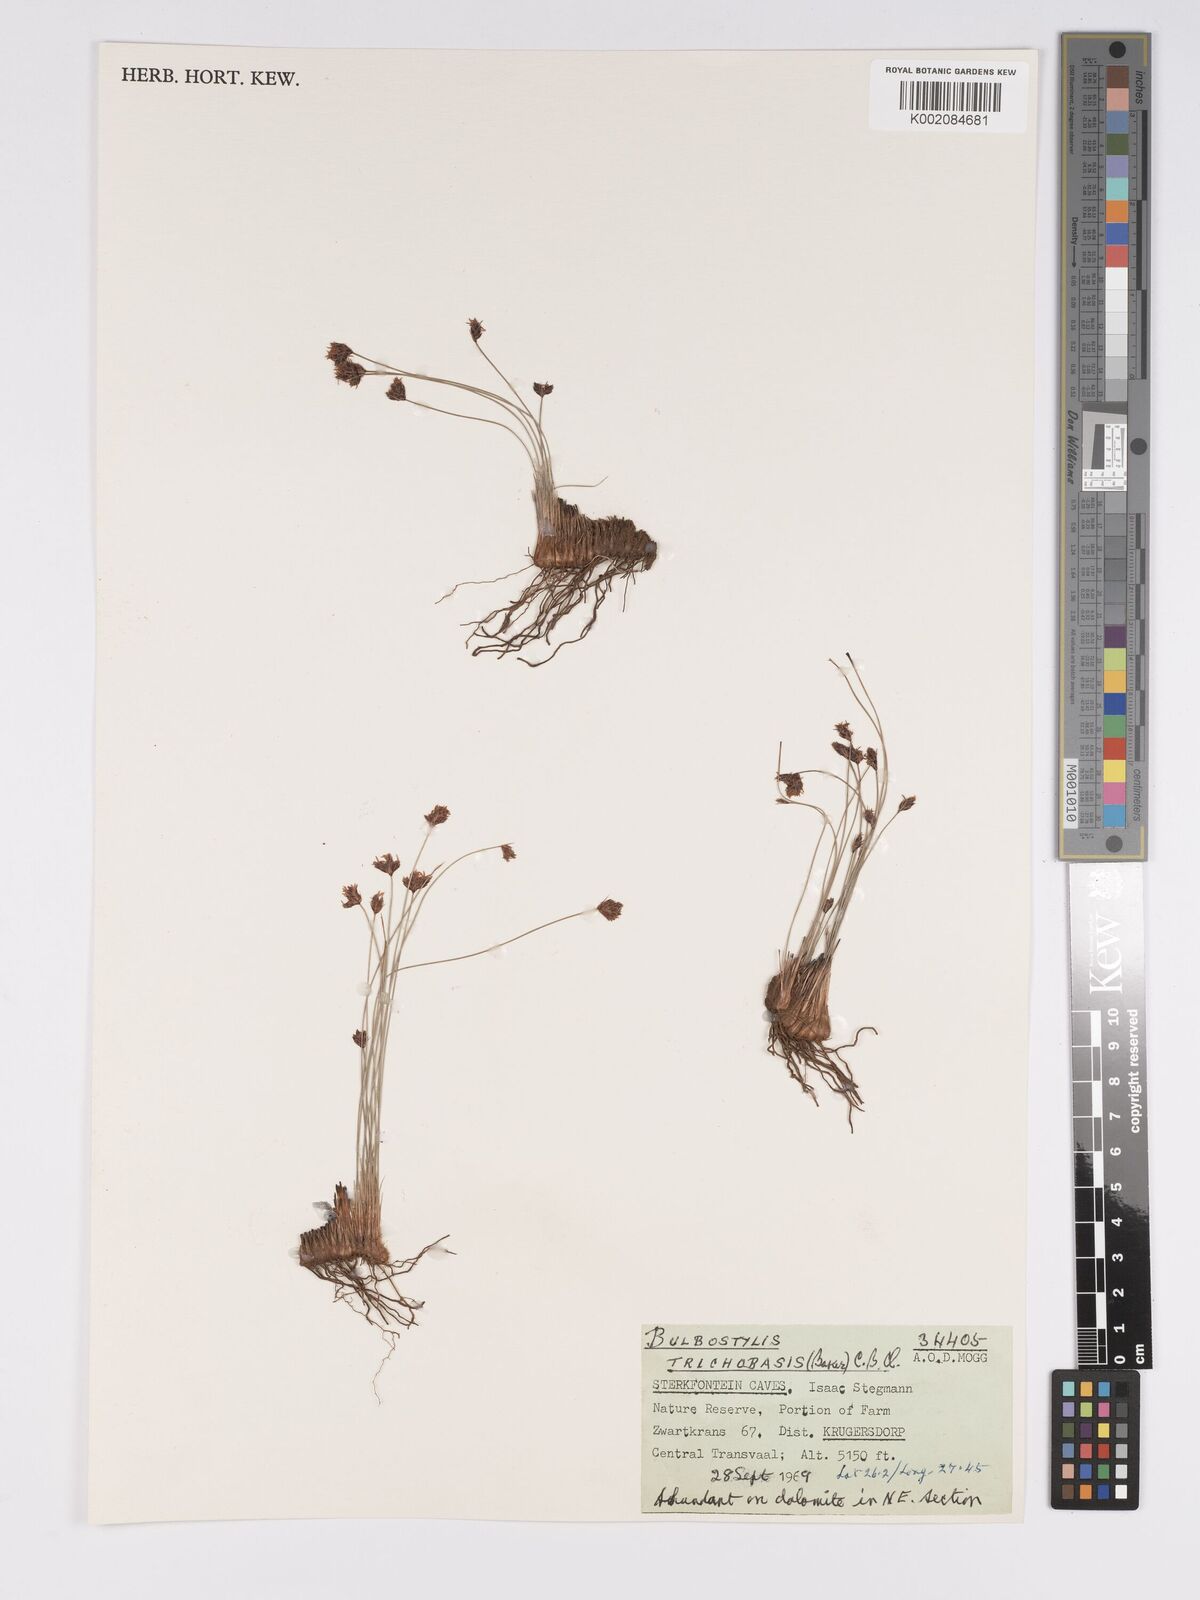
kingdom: Plantae
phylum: Tracheophyta
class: Liliopsida
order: Poales
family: Cyperaceae
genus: Bulbostylis
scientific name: Bulbostylis oritrephes
